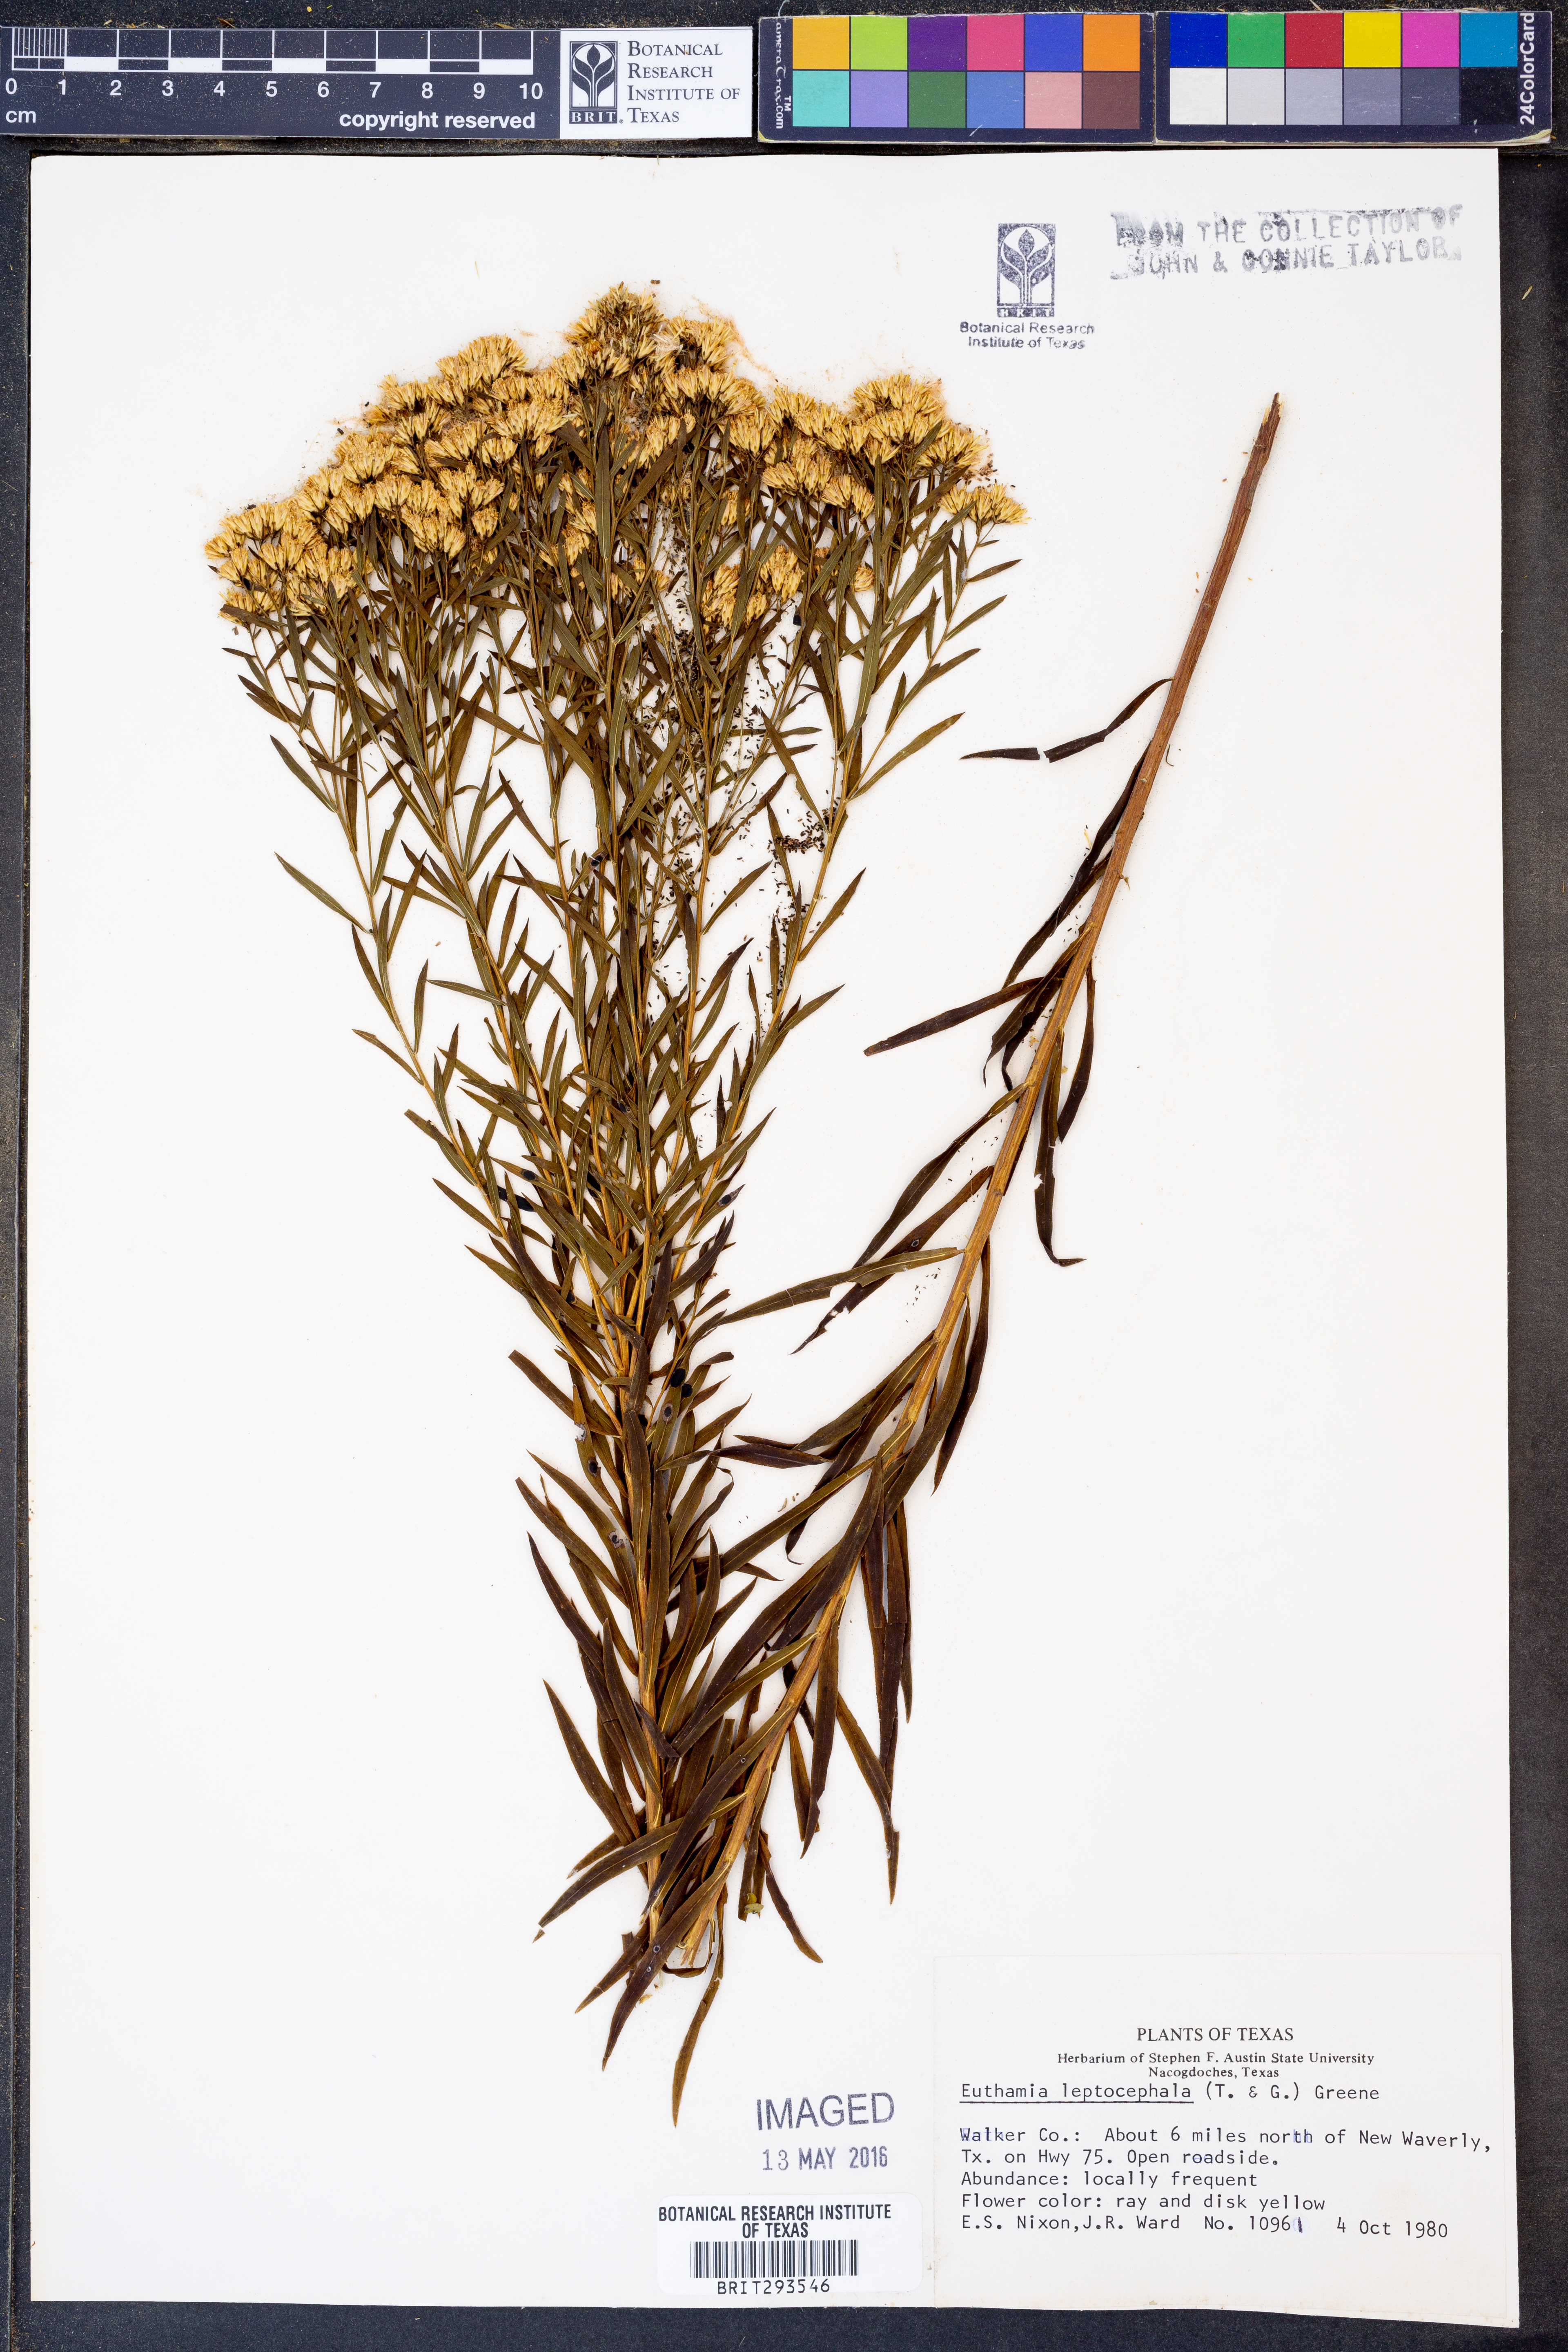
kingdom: Plantae
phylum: Tracheophyta
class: Magnoliopsida
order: Asterales
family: Asteraceae
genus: Euthamia
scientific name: Euthamia leptocephala
